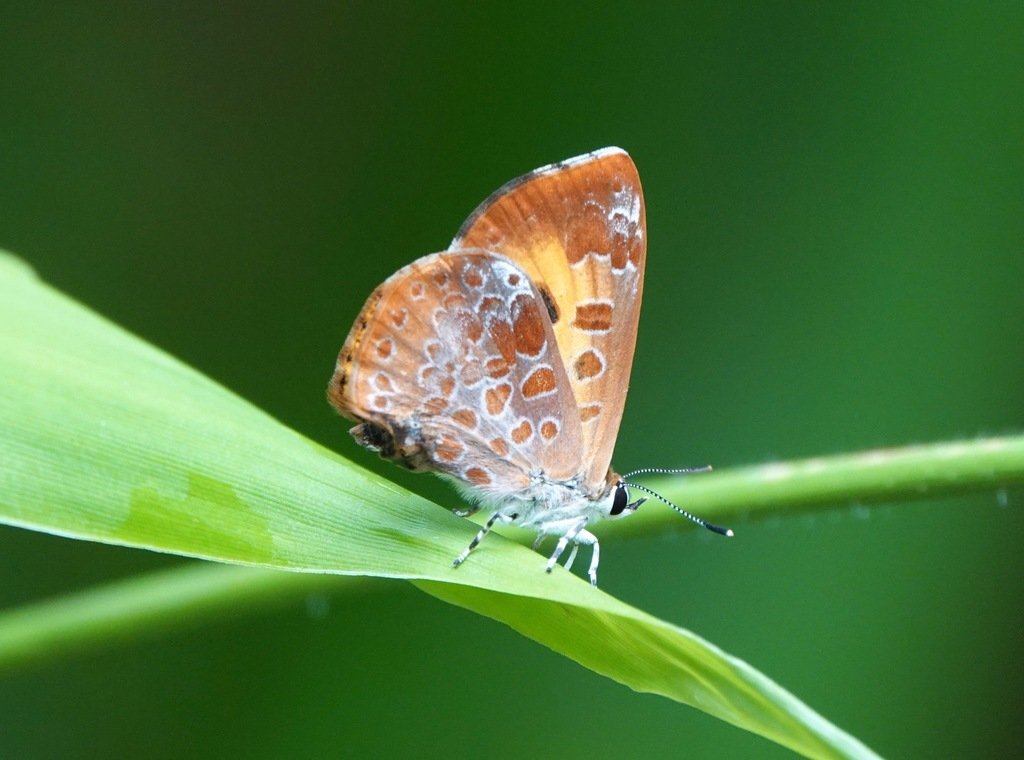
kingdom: Animalia
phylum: Arthropoda
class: Insecta
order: Lepidoptera
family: Lycaenidae
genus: Feniseca
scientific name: Feniseca tarquinius
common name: Harvester
